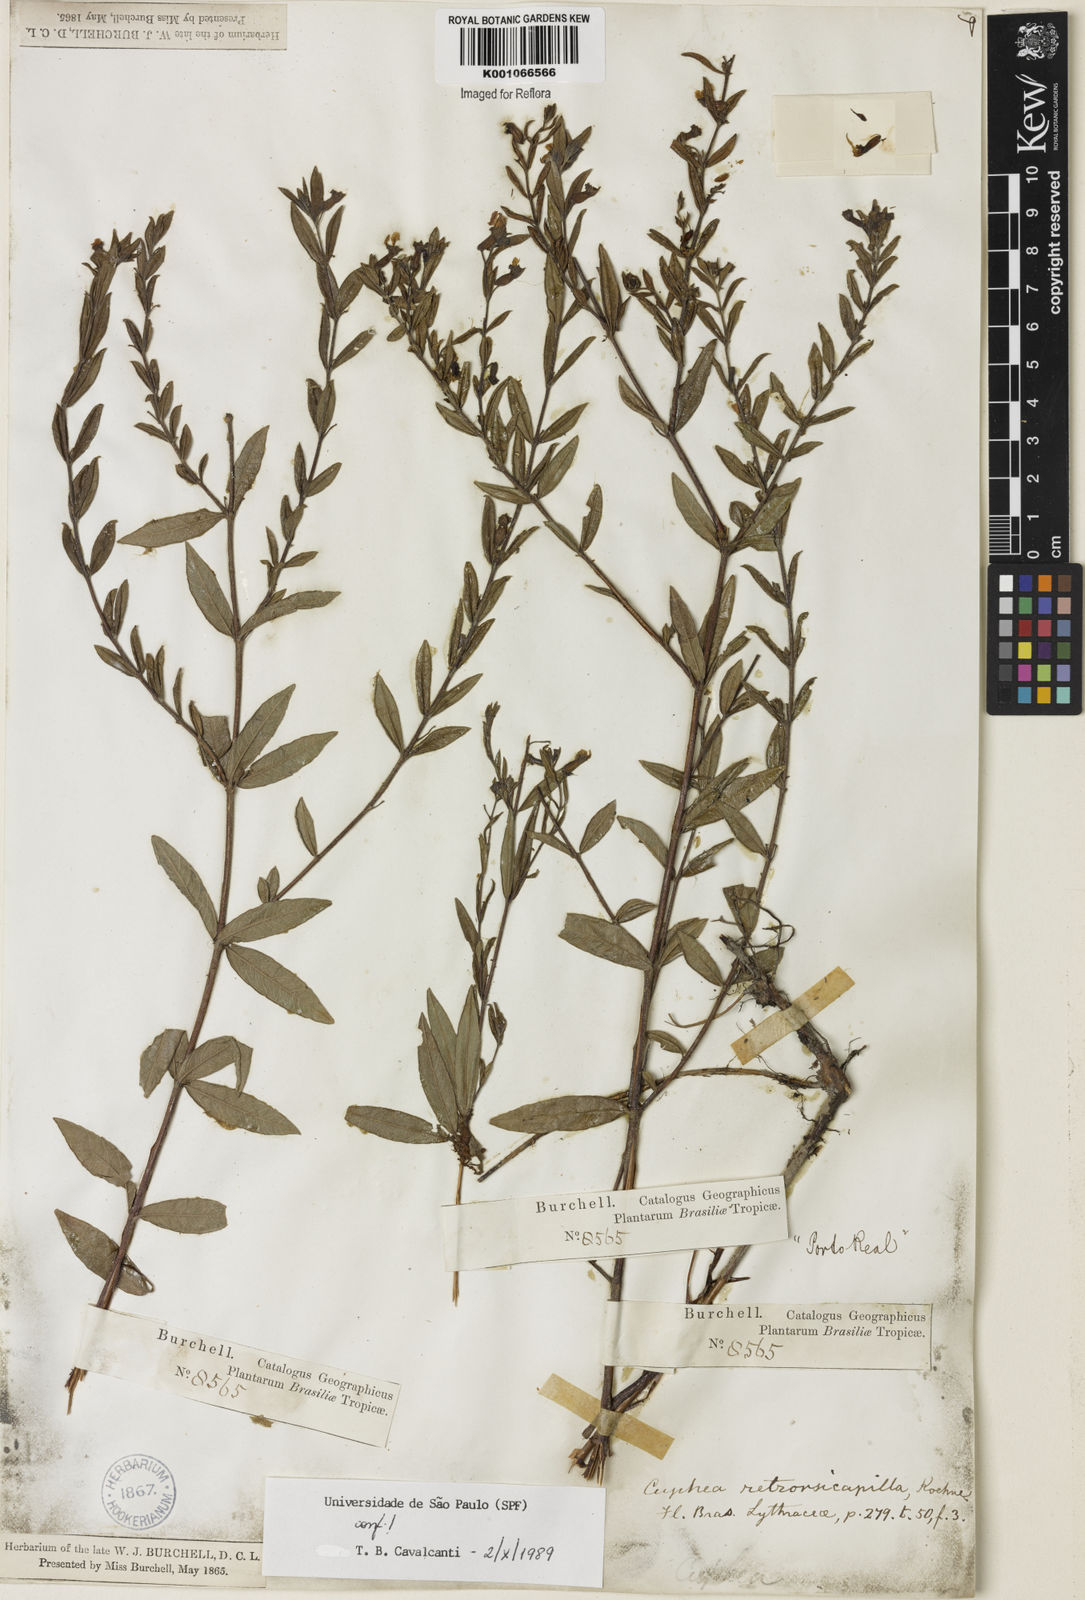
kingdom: Plantae
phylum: Tracheophyta
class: Magnoliopsida
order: Myrtales
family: Lythraceae
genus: Cuphea
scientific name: Cuphea retrorsicapilla
